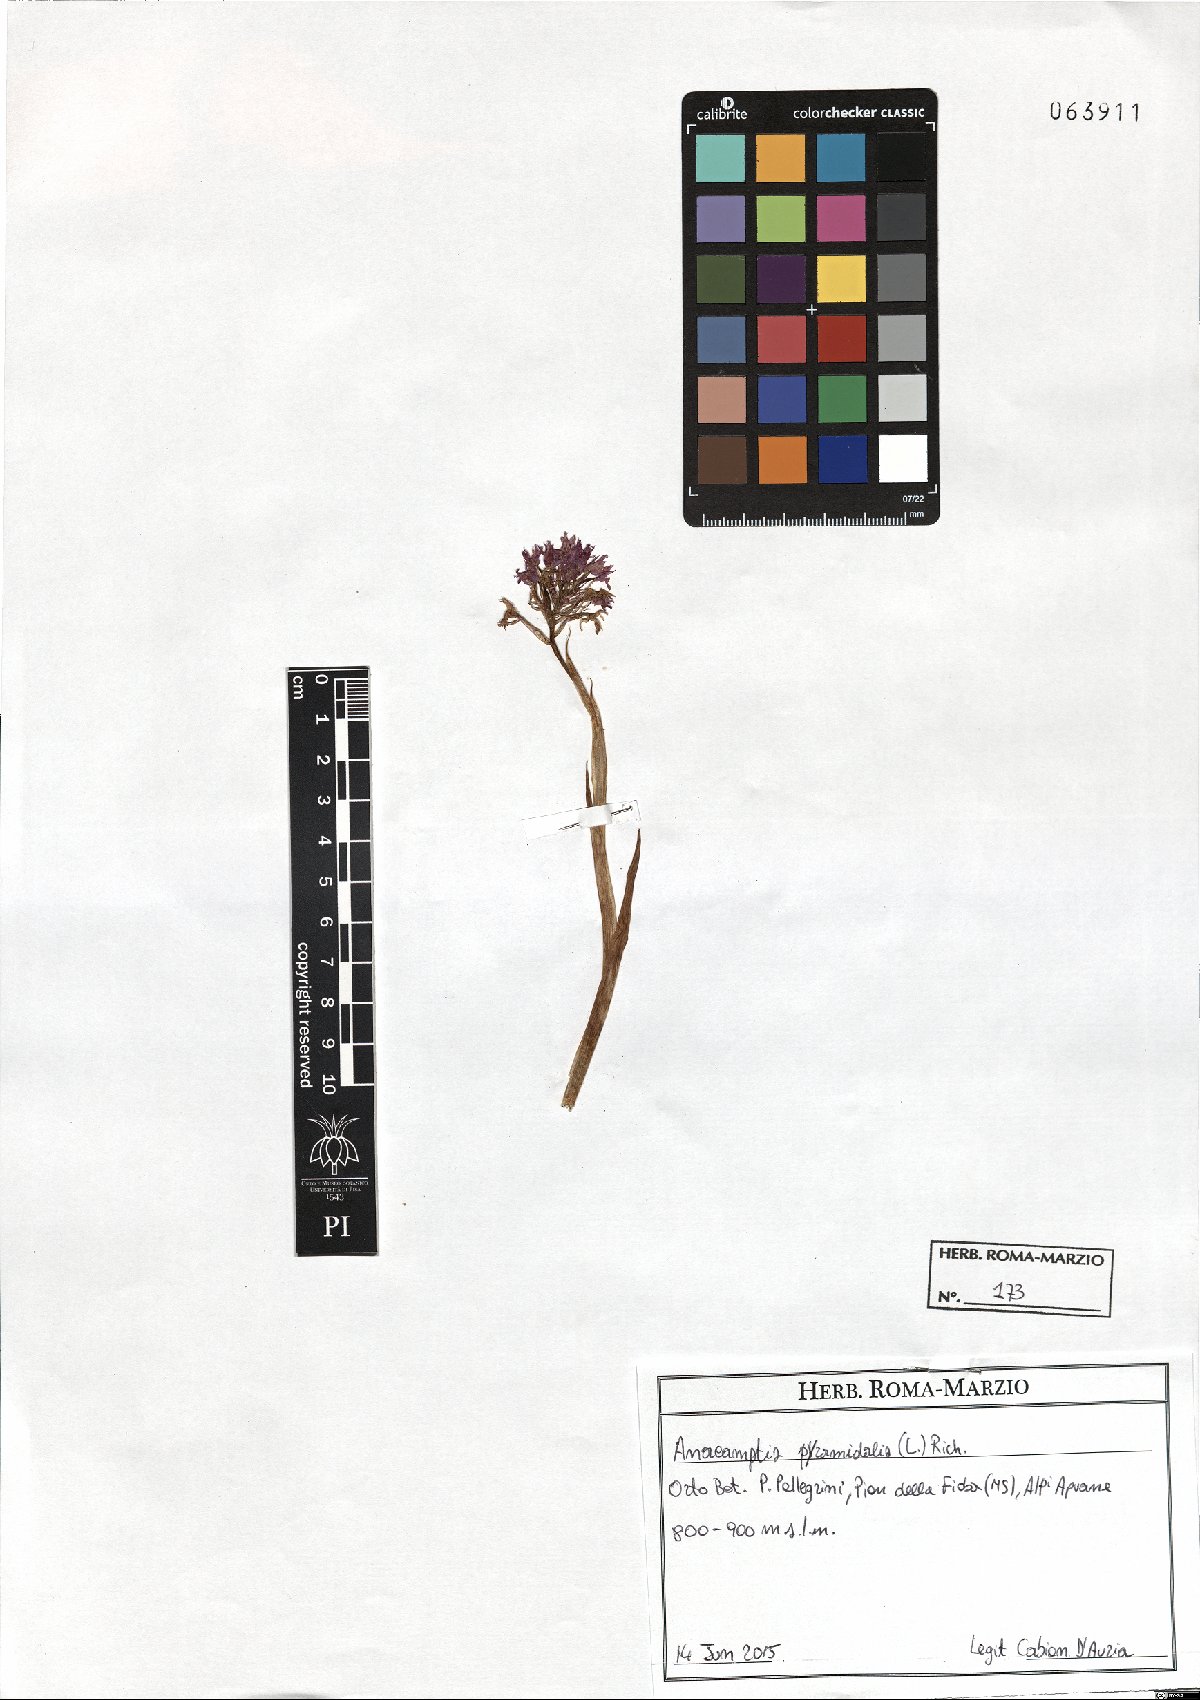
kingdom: Plantae
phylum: Tracheophyta
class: Liliopsida
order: Asparagales
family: Orchidaceae
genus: Anacamptis
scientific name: Anacamptis pyramidalis
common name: Pyramidal orchid
